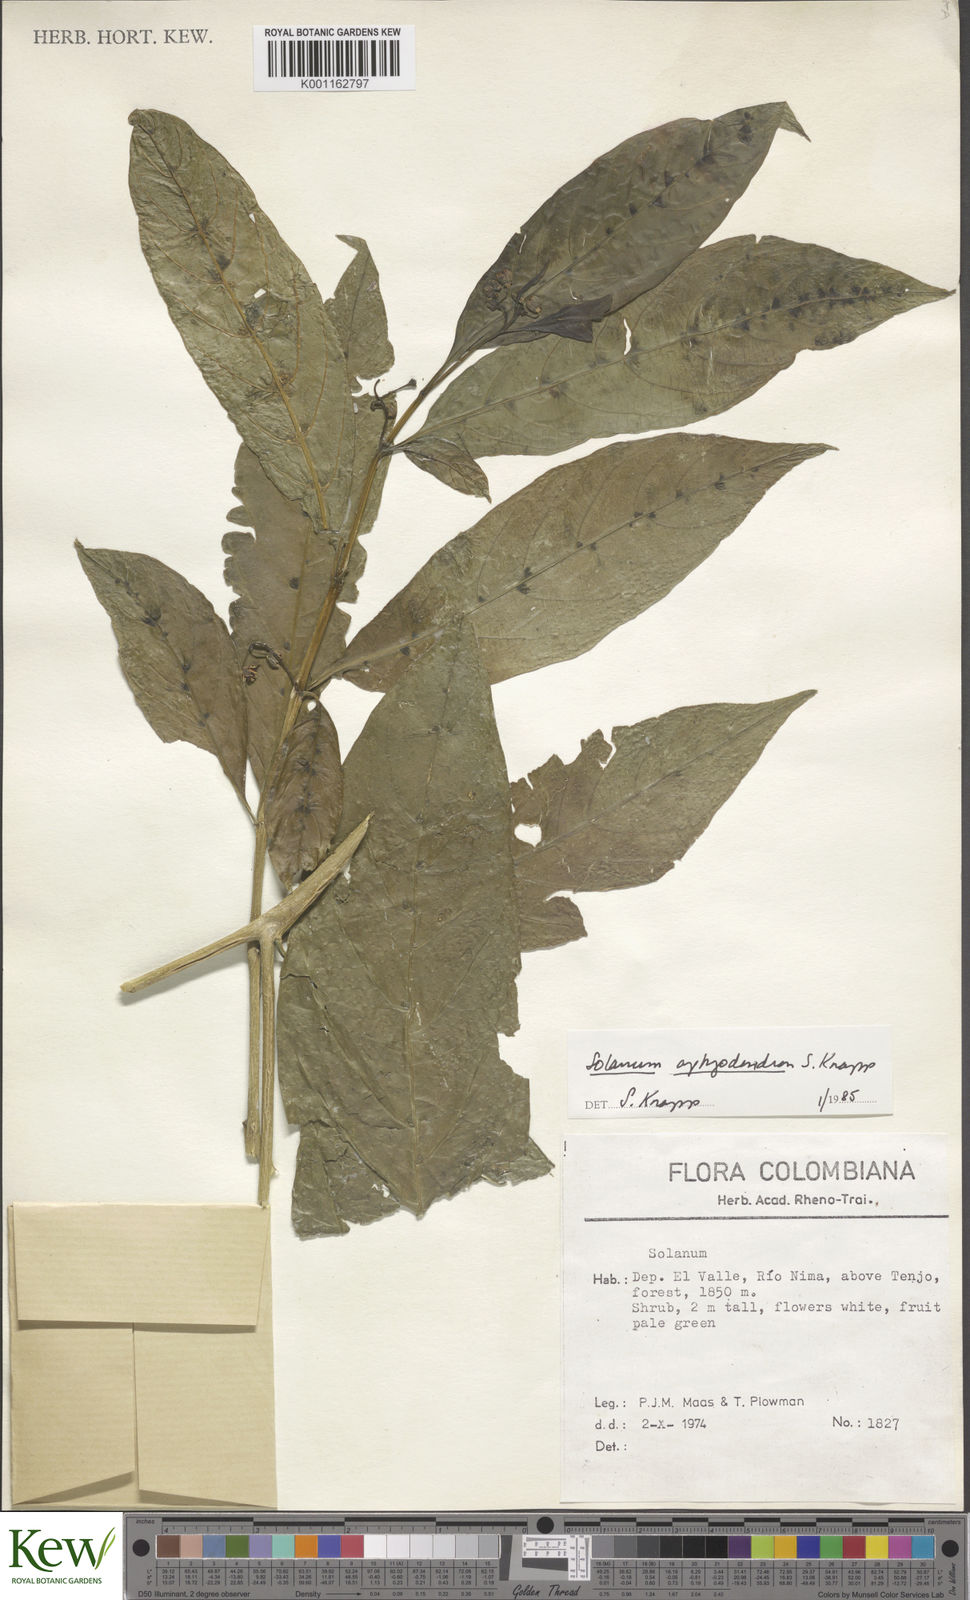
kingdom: Plantae
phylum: Tracheophyta
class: Magnoliopsida
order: Solanales
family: Solanaceae
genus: Solanum
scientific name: Solanum aphyodendron
